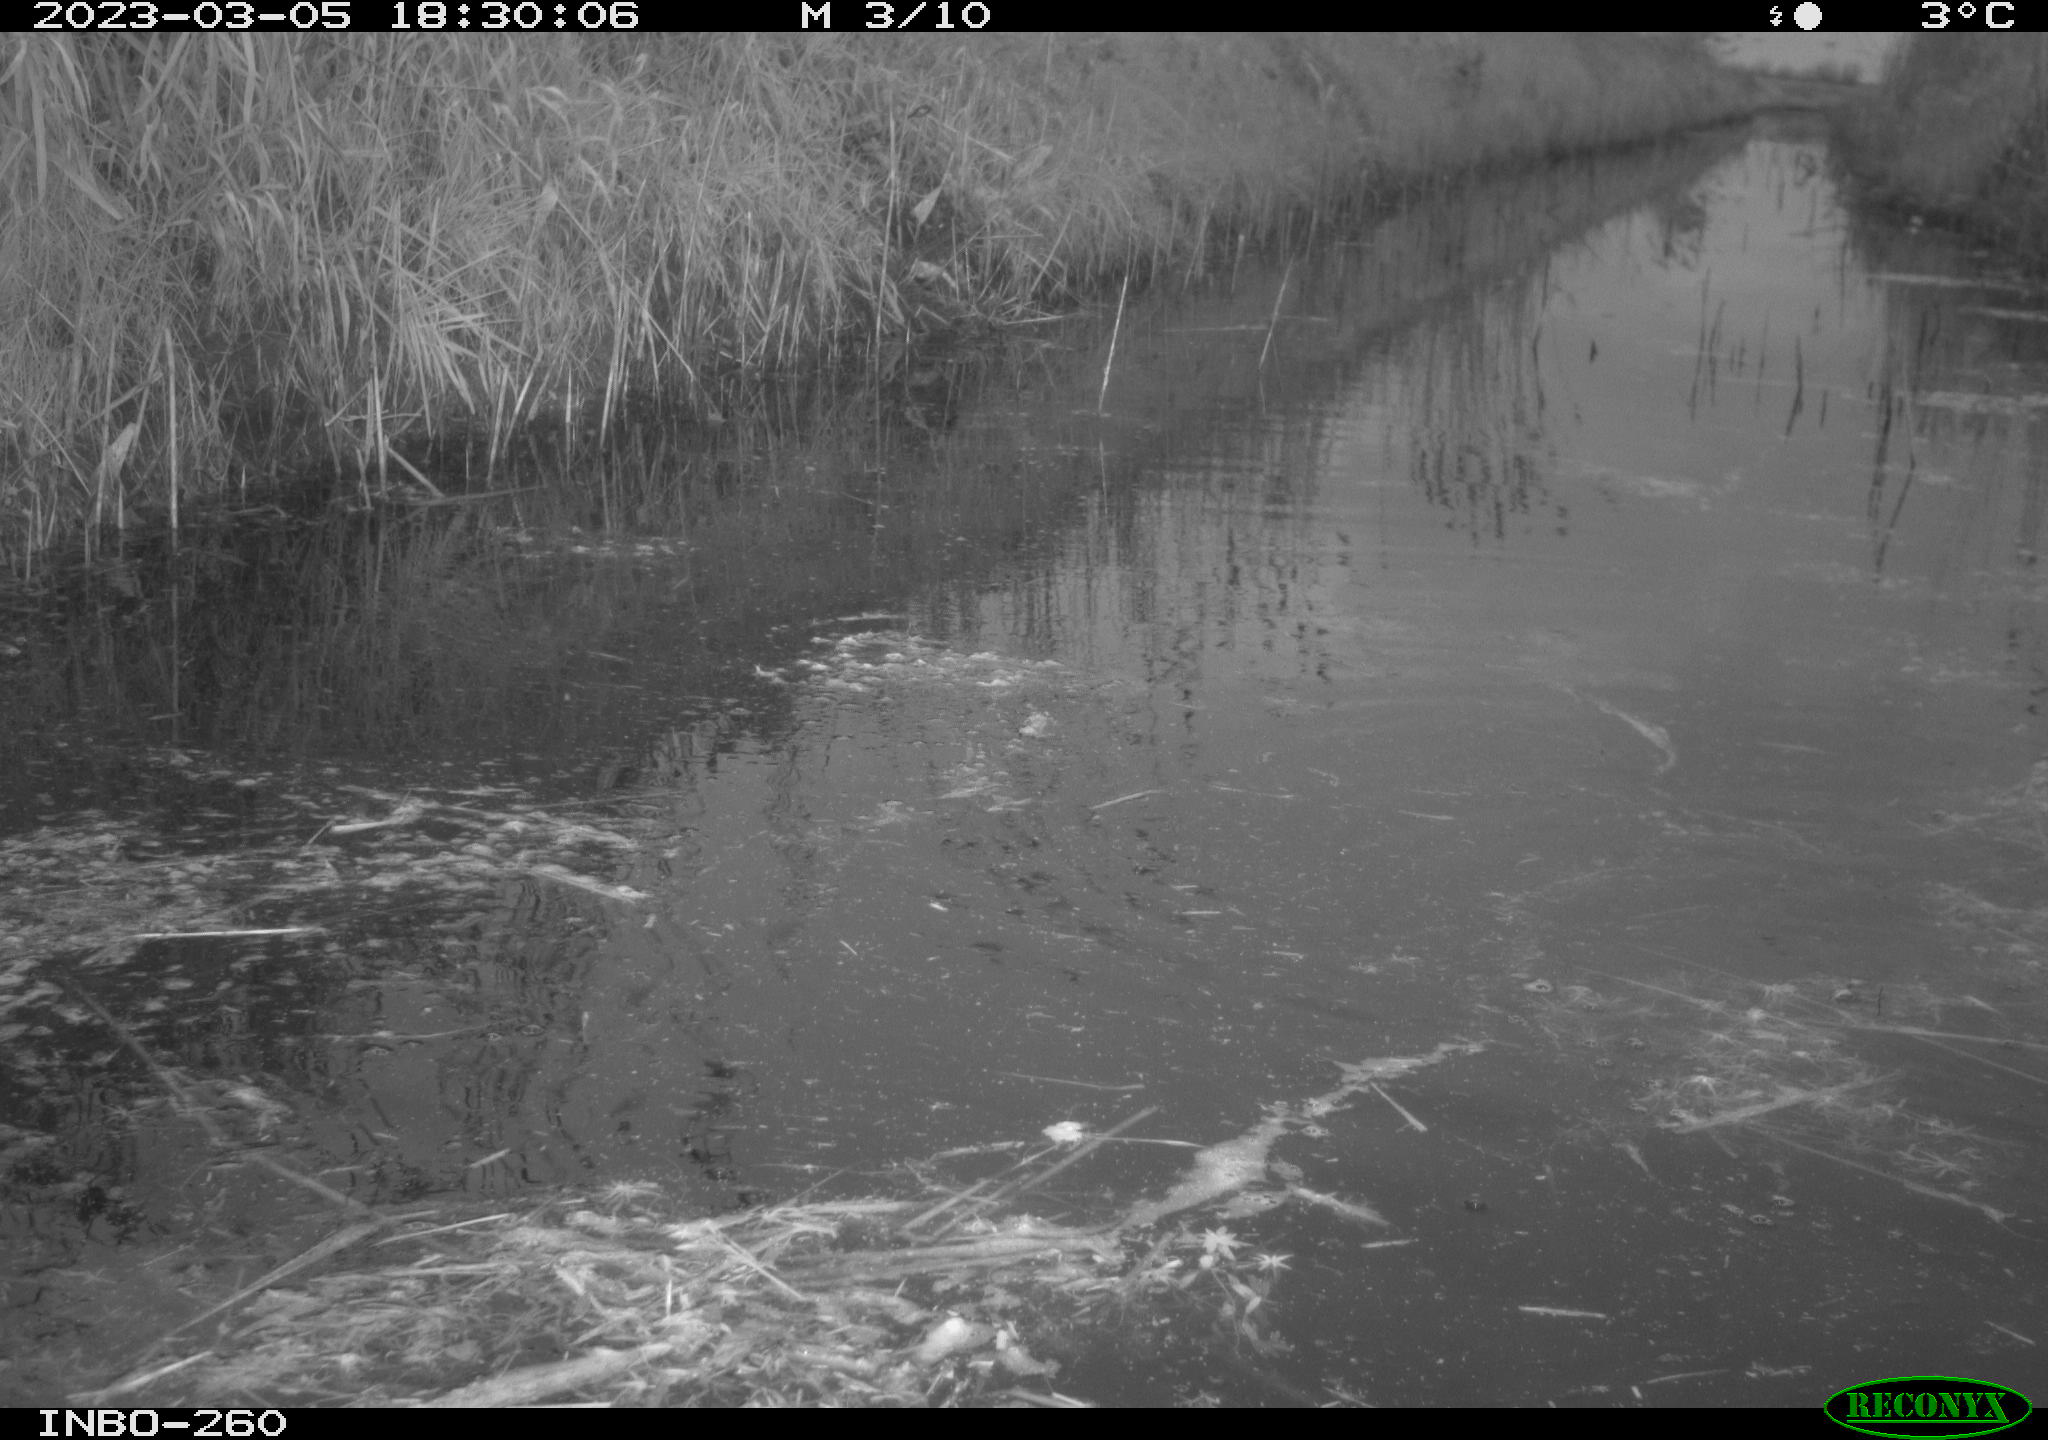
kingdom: Animalia
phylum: Chordata
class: Aves
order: Gruiformes
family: Rallidae
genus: Gallinula
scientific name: Gallinula chloropus
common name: Common moorhen
